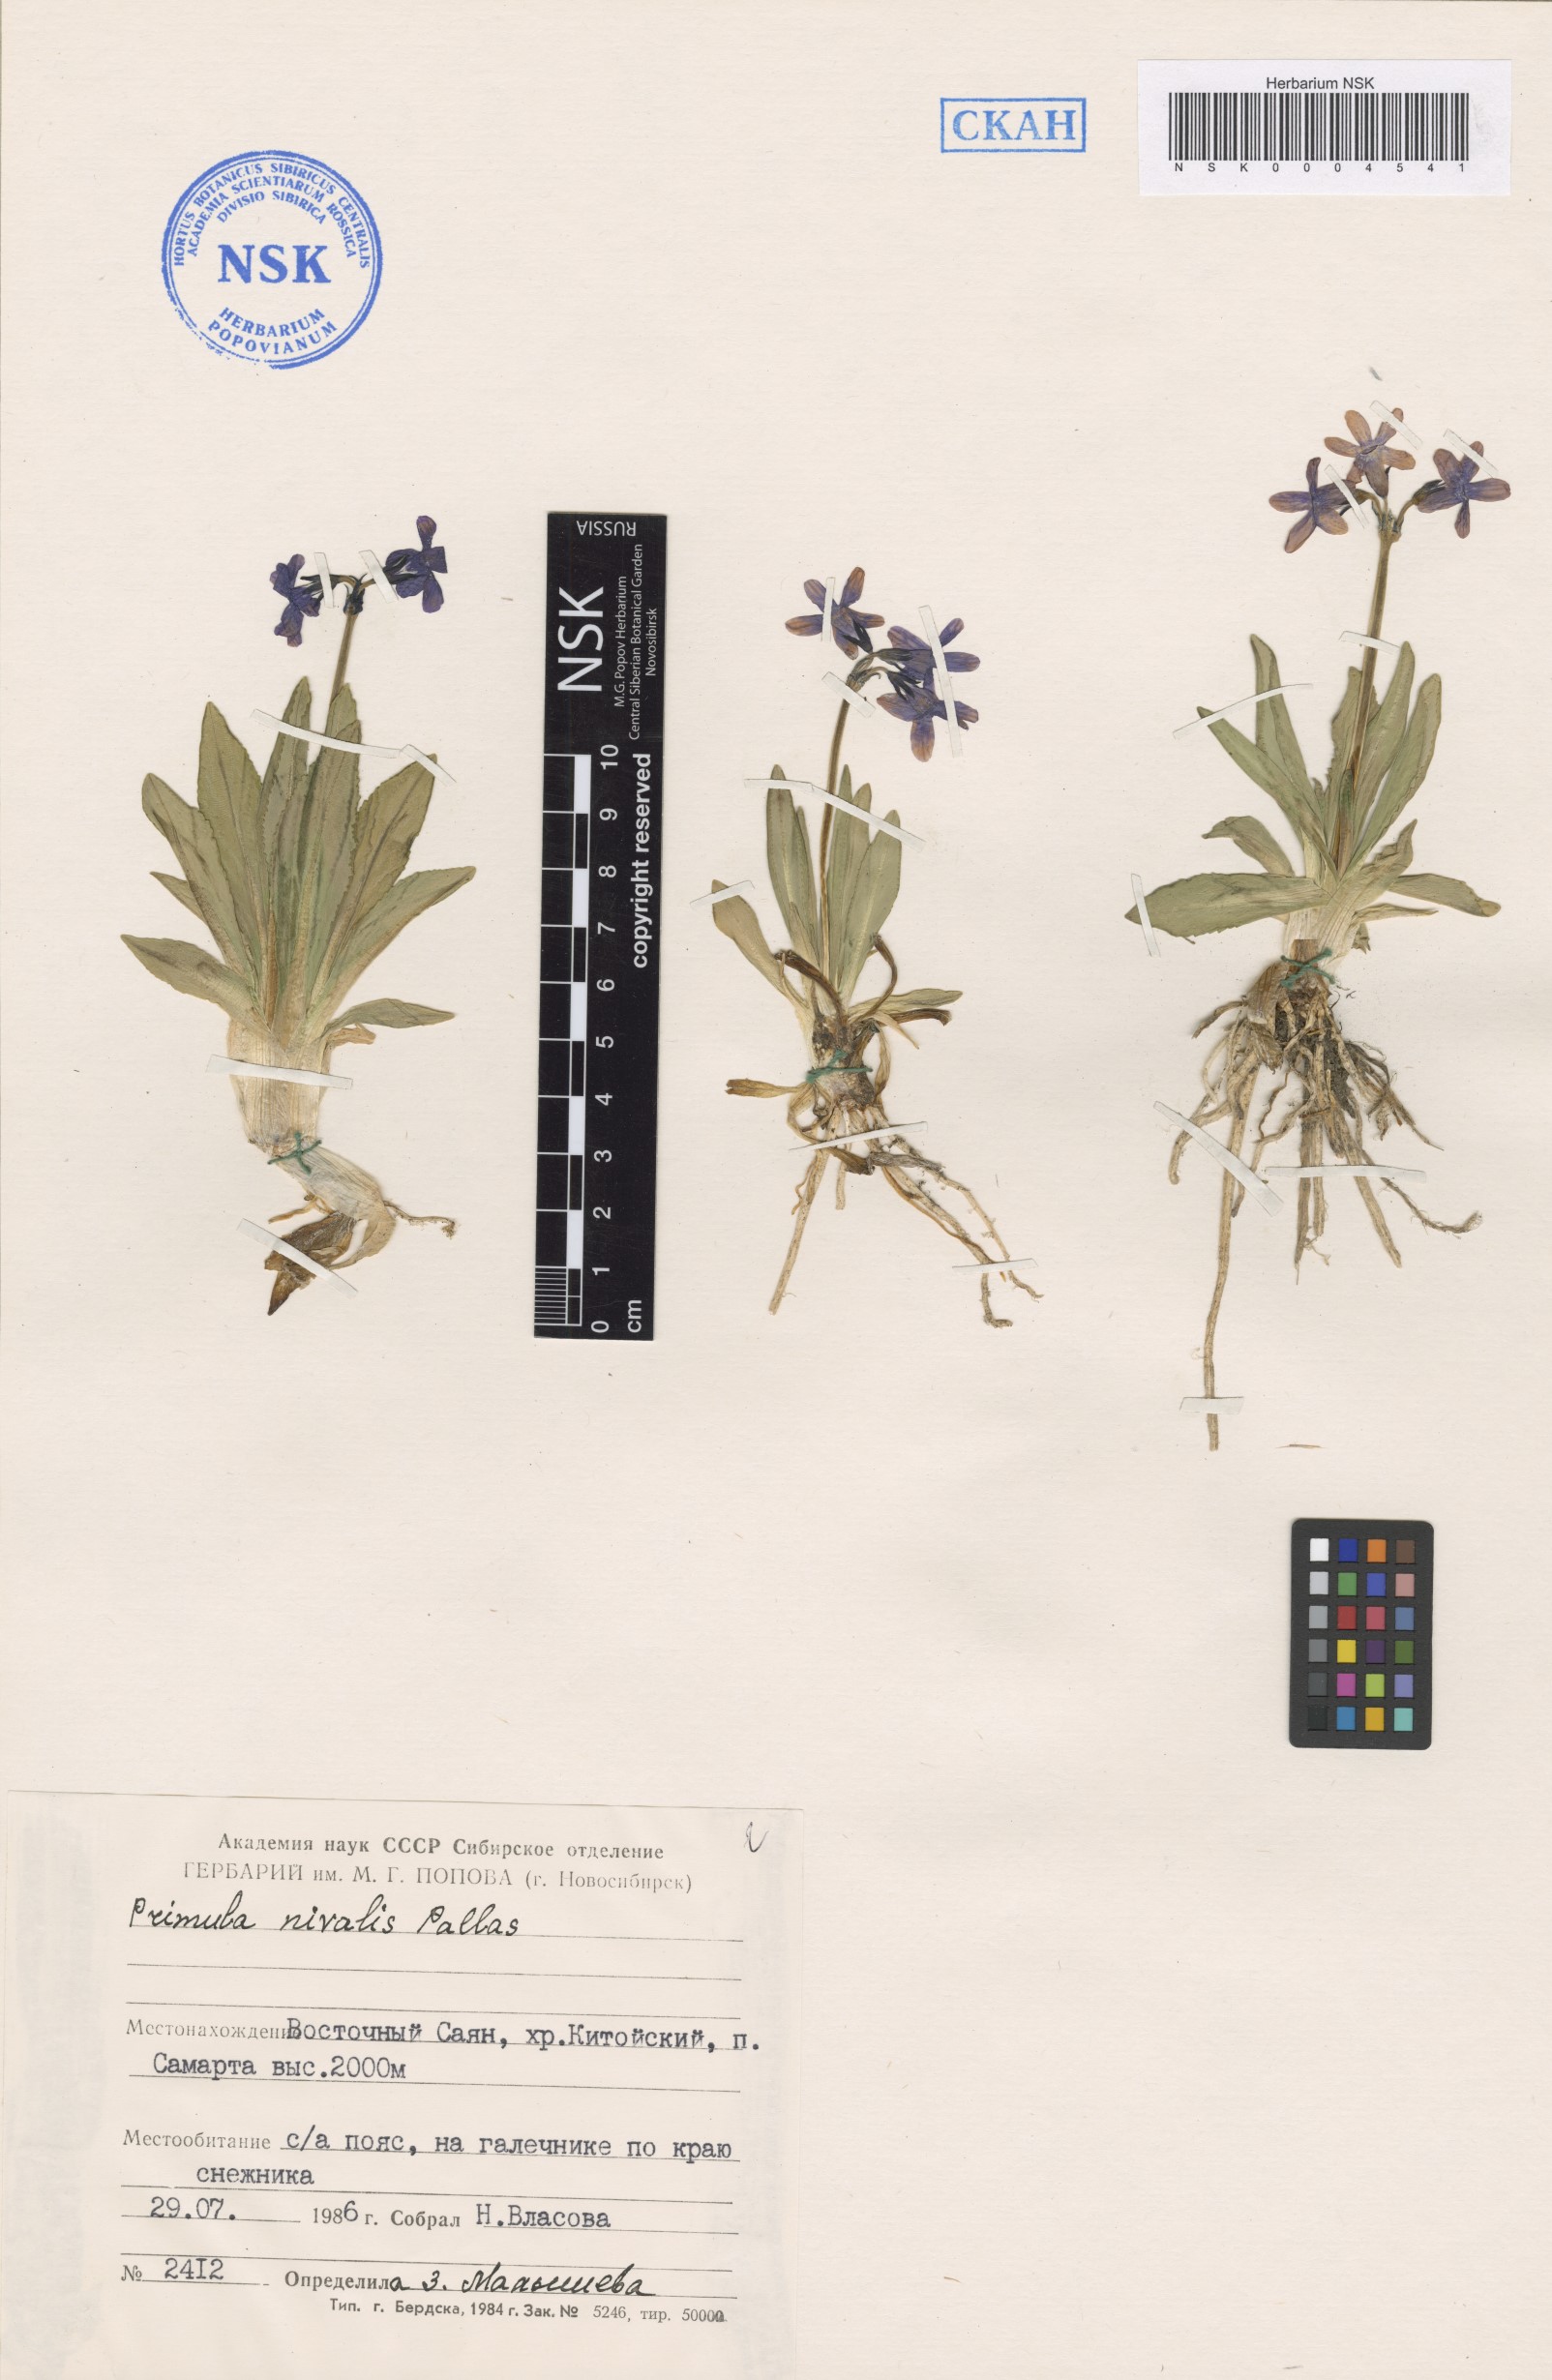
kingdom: Plantae
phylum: Tracheophyta
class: Magnoliopsida
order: Ericales
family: Primulaceae
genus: Primula
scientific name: Primula nivalis
